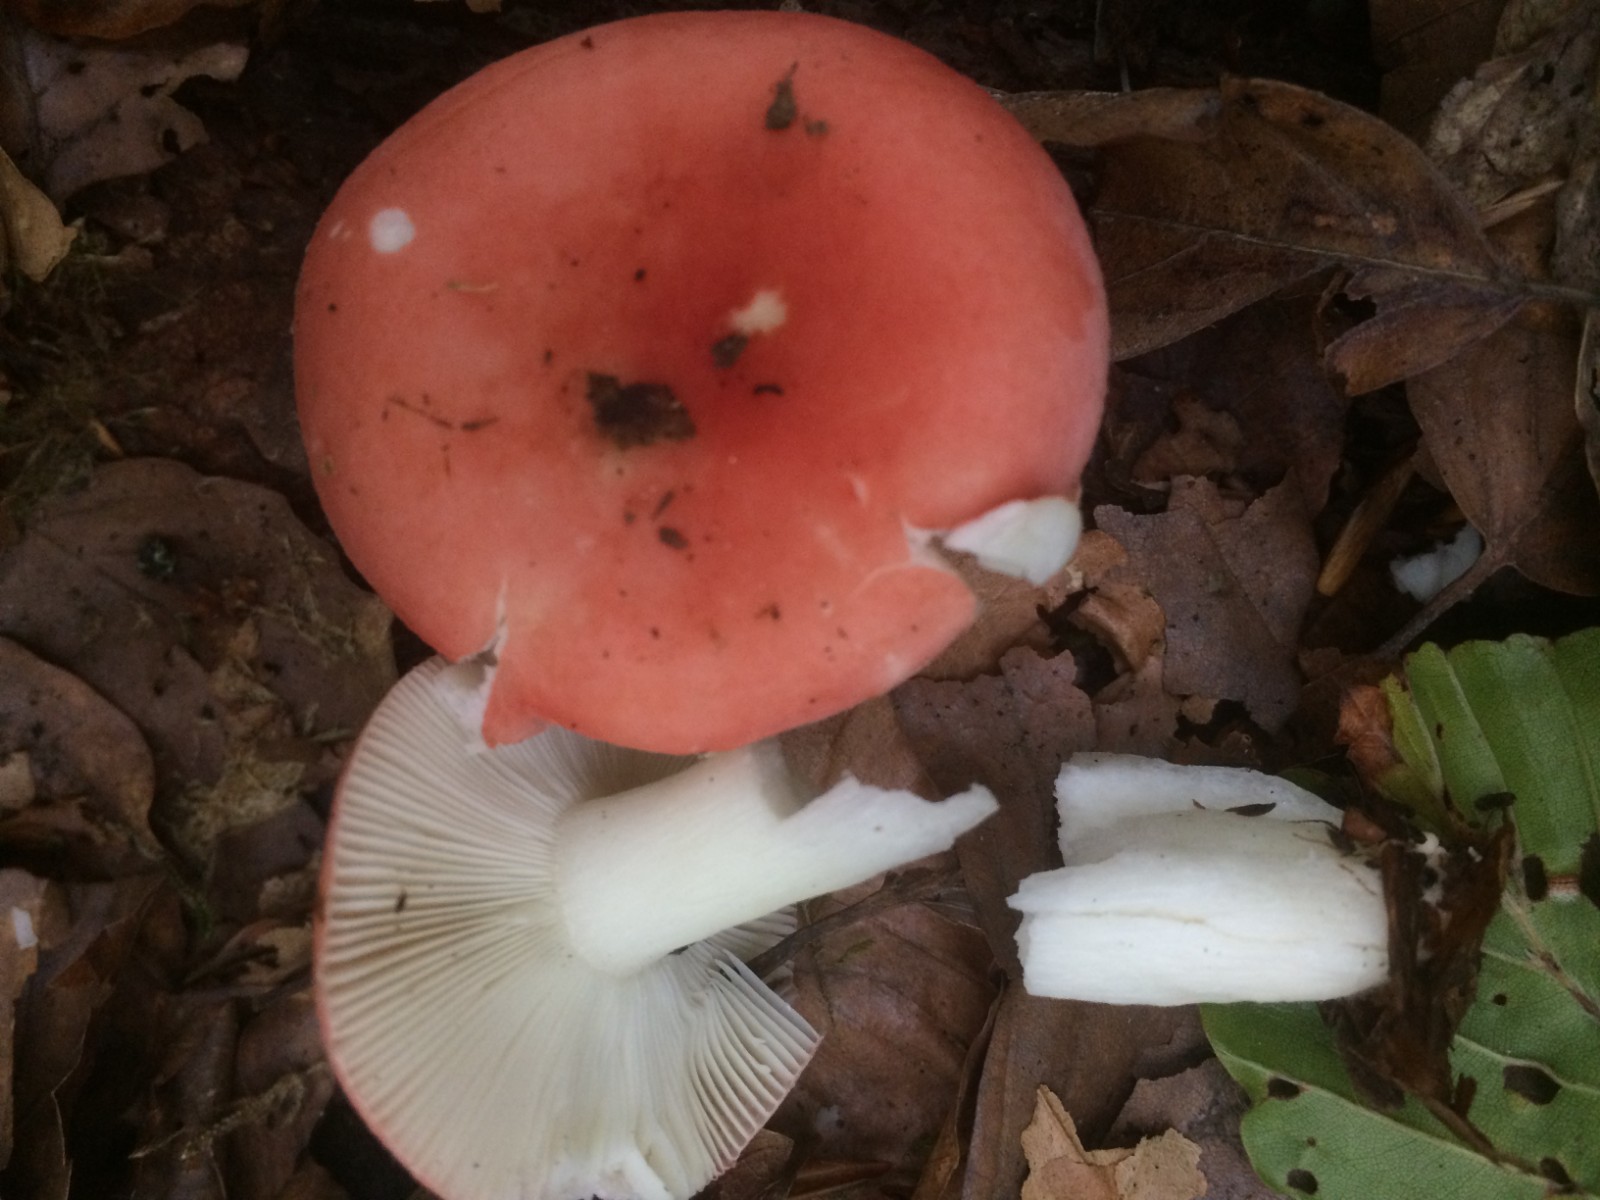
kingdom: Fungi
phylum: Basidiomycota
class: Agaricomycetes
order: Russulales
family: Russulaceae
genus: Russula
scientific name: Russula
